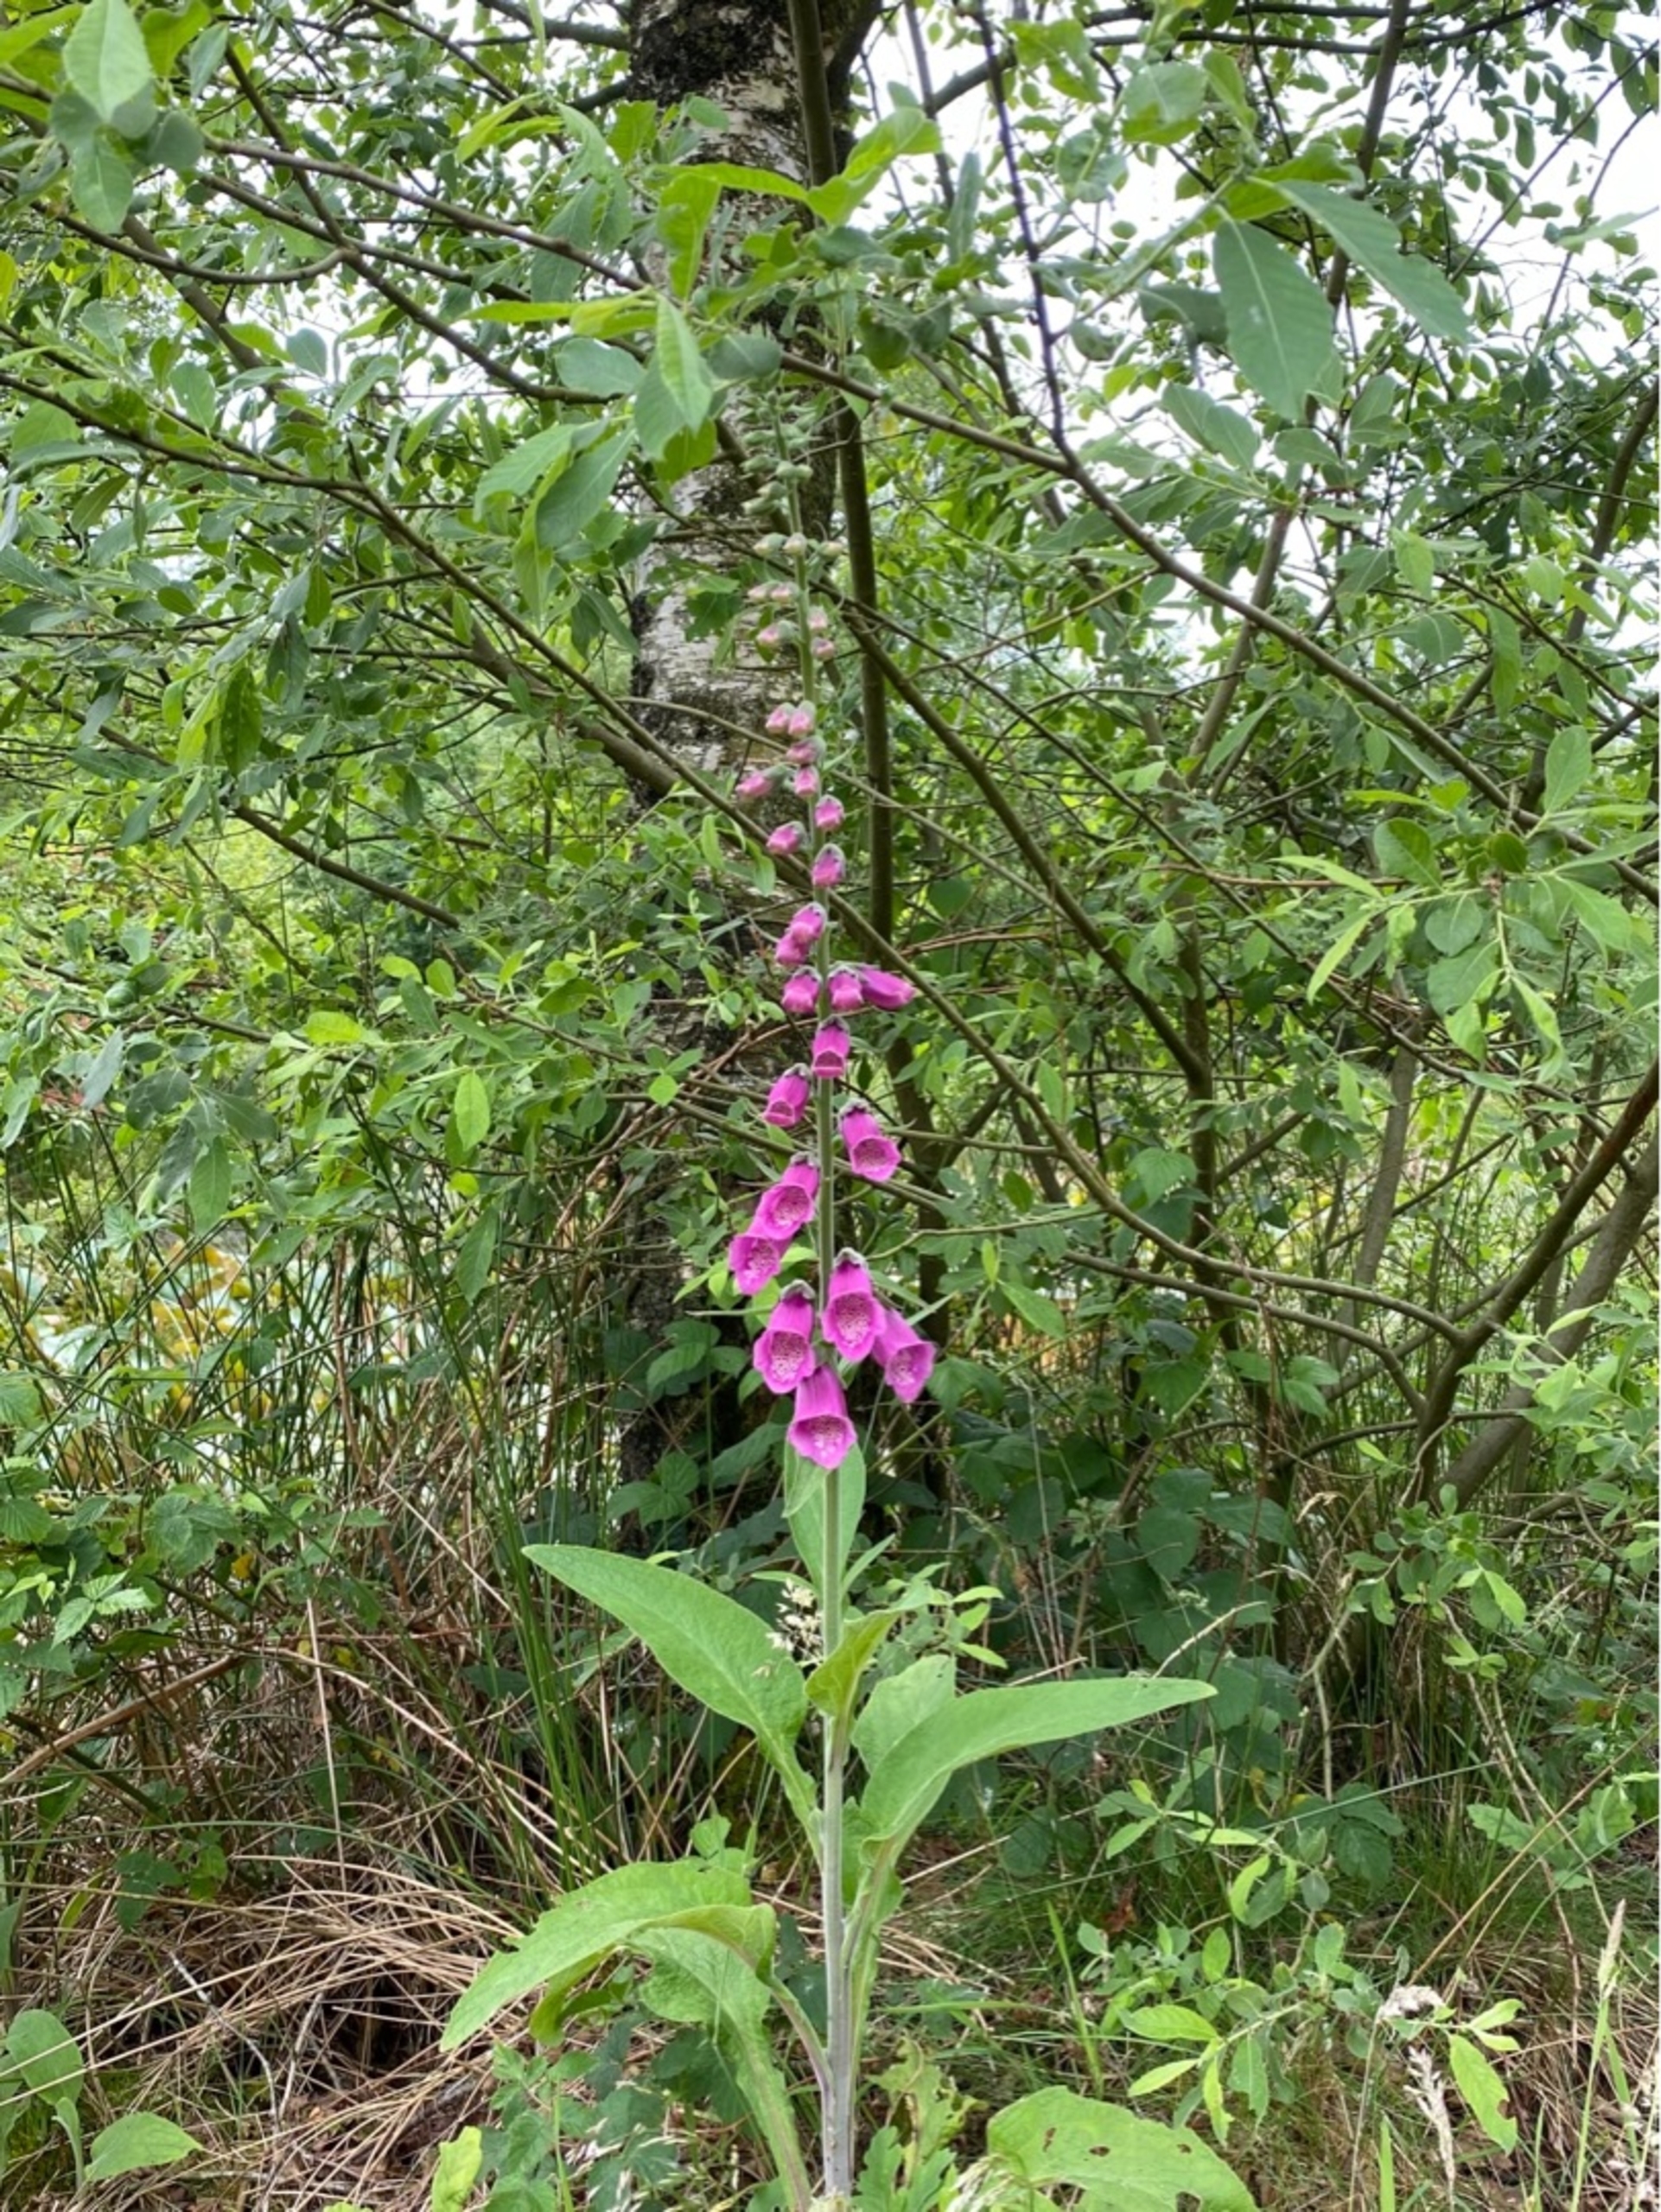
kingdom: Plantae
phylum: Tracheophyta
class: Magnoliopsida
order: Lamiales
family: Plantaginaceae
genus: Digitalis
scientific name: Digitalis purpurea
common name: Almindelig fingerbøl
